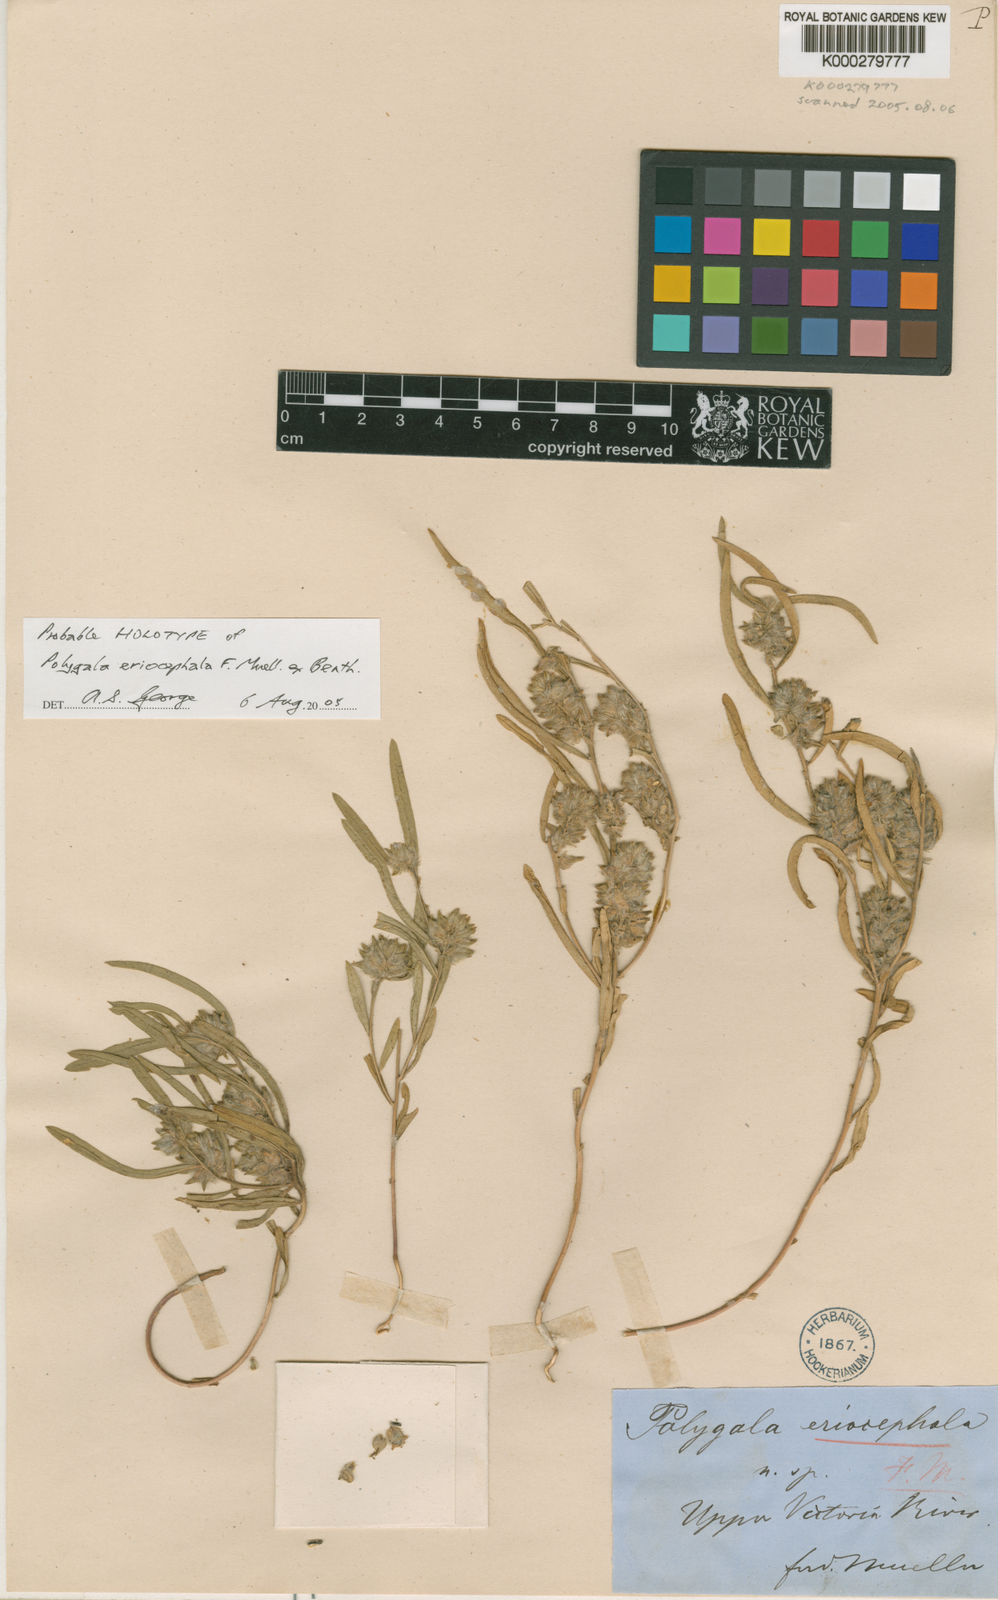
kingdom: Plantae
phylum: Tracheophyta
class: Magnoliopsida
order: Fabales
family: Polygalaceae
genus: Polygala
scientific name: Polygala eriocephala
